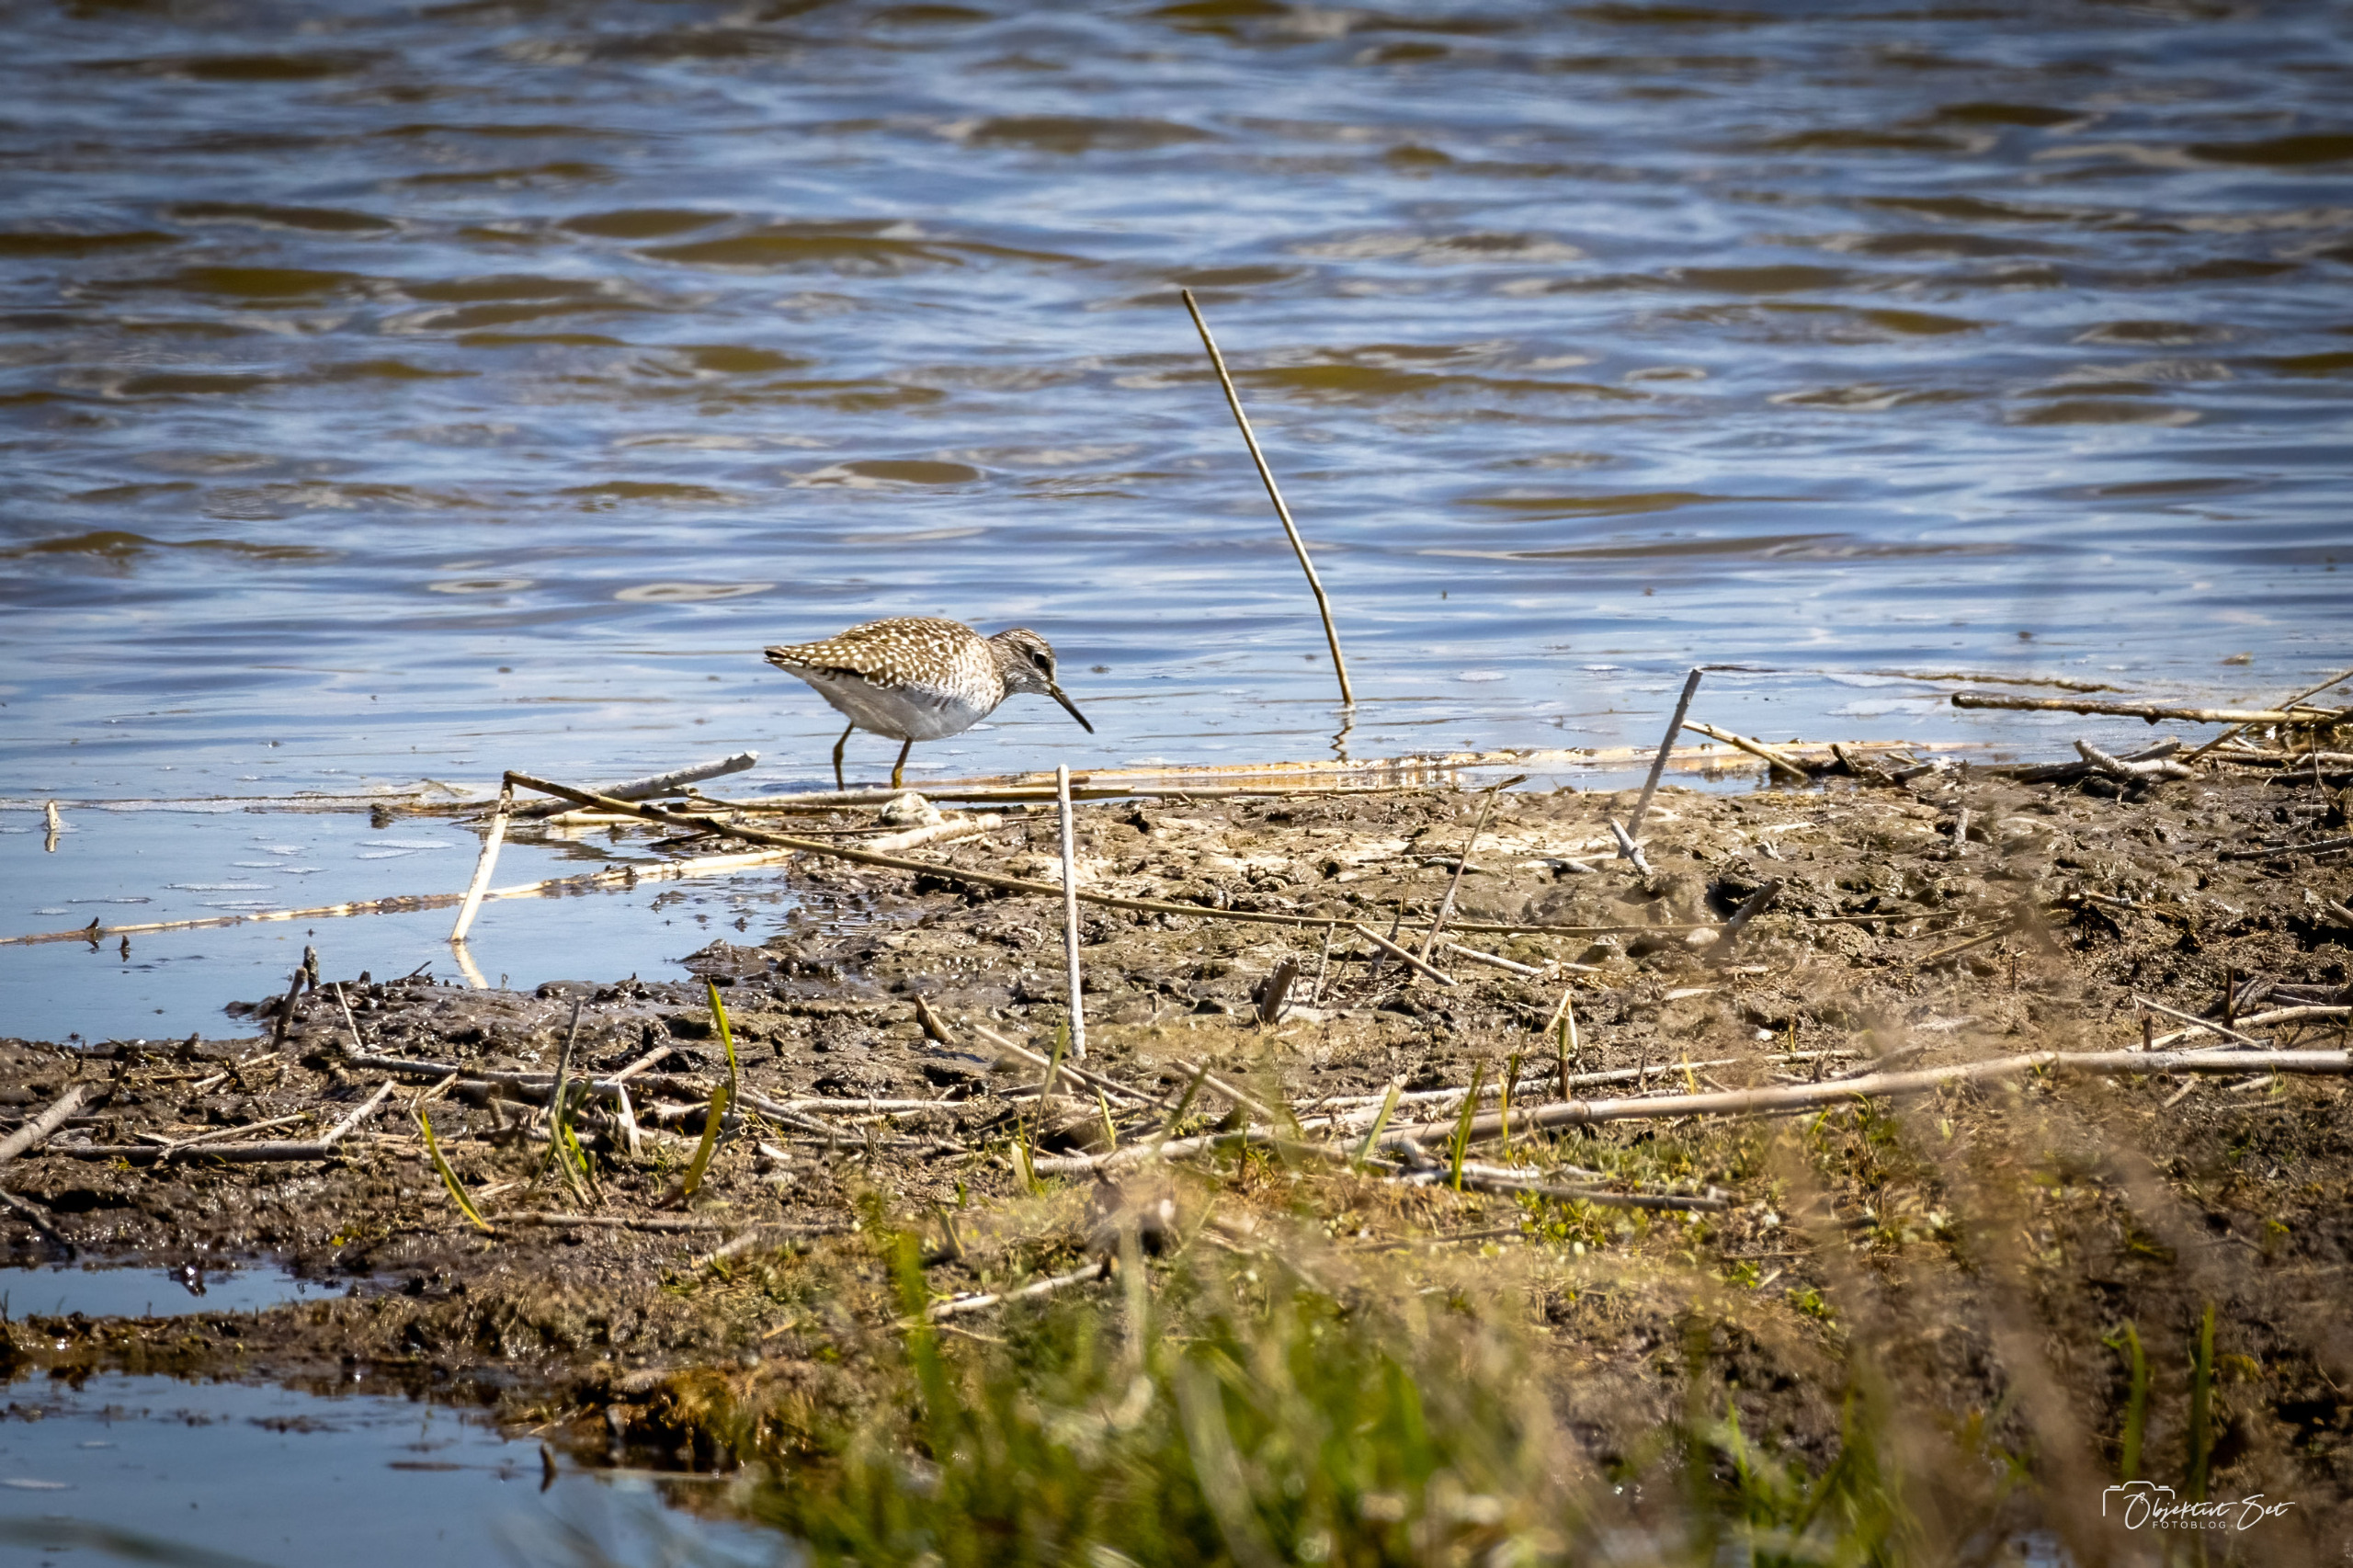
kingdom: Animalia
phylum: Chordata
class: Aves
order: Charadriiformes
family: Scolopacidae
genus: Tringa
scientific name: Tringa glareola
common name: Tinksmed
